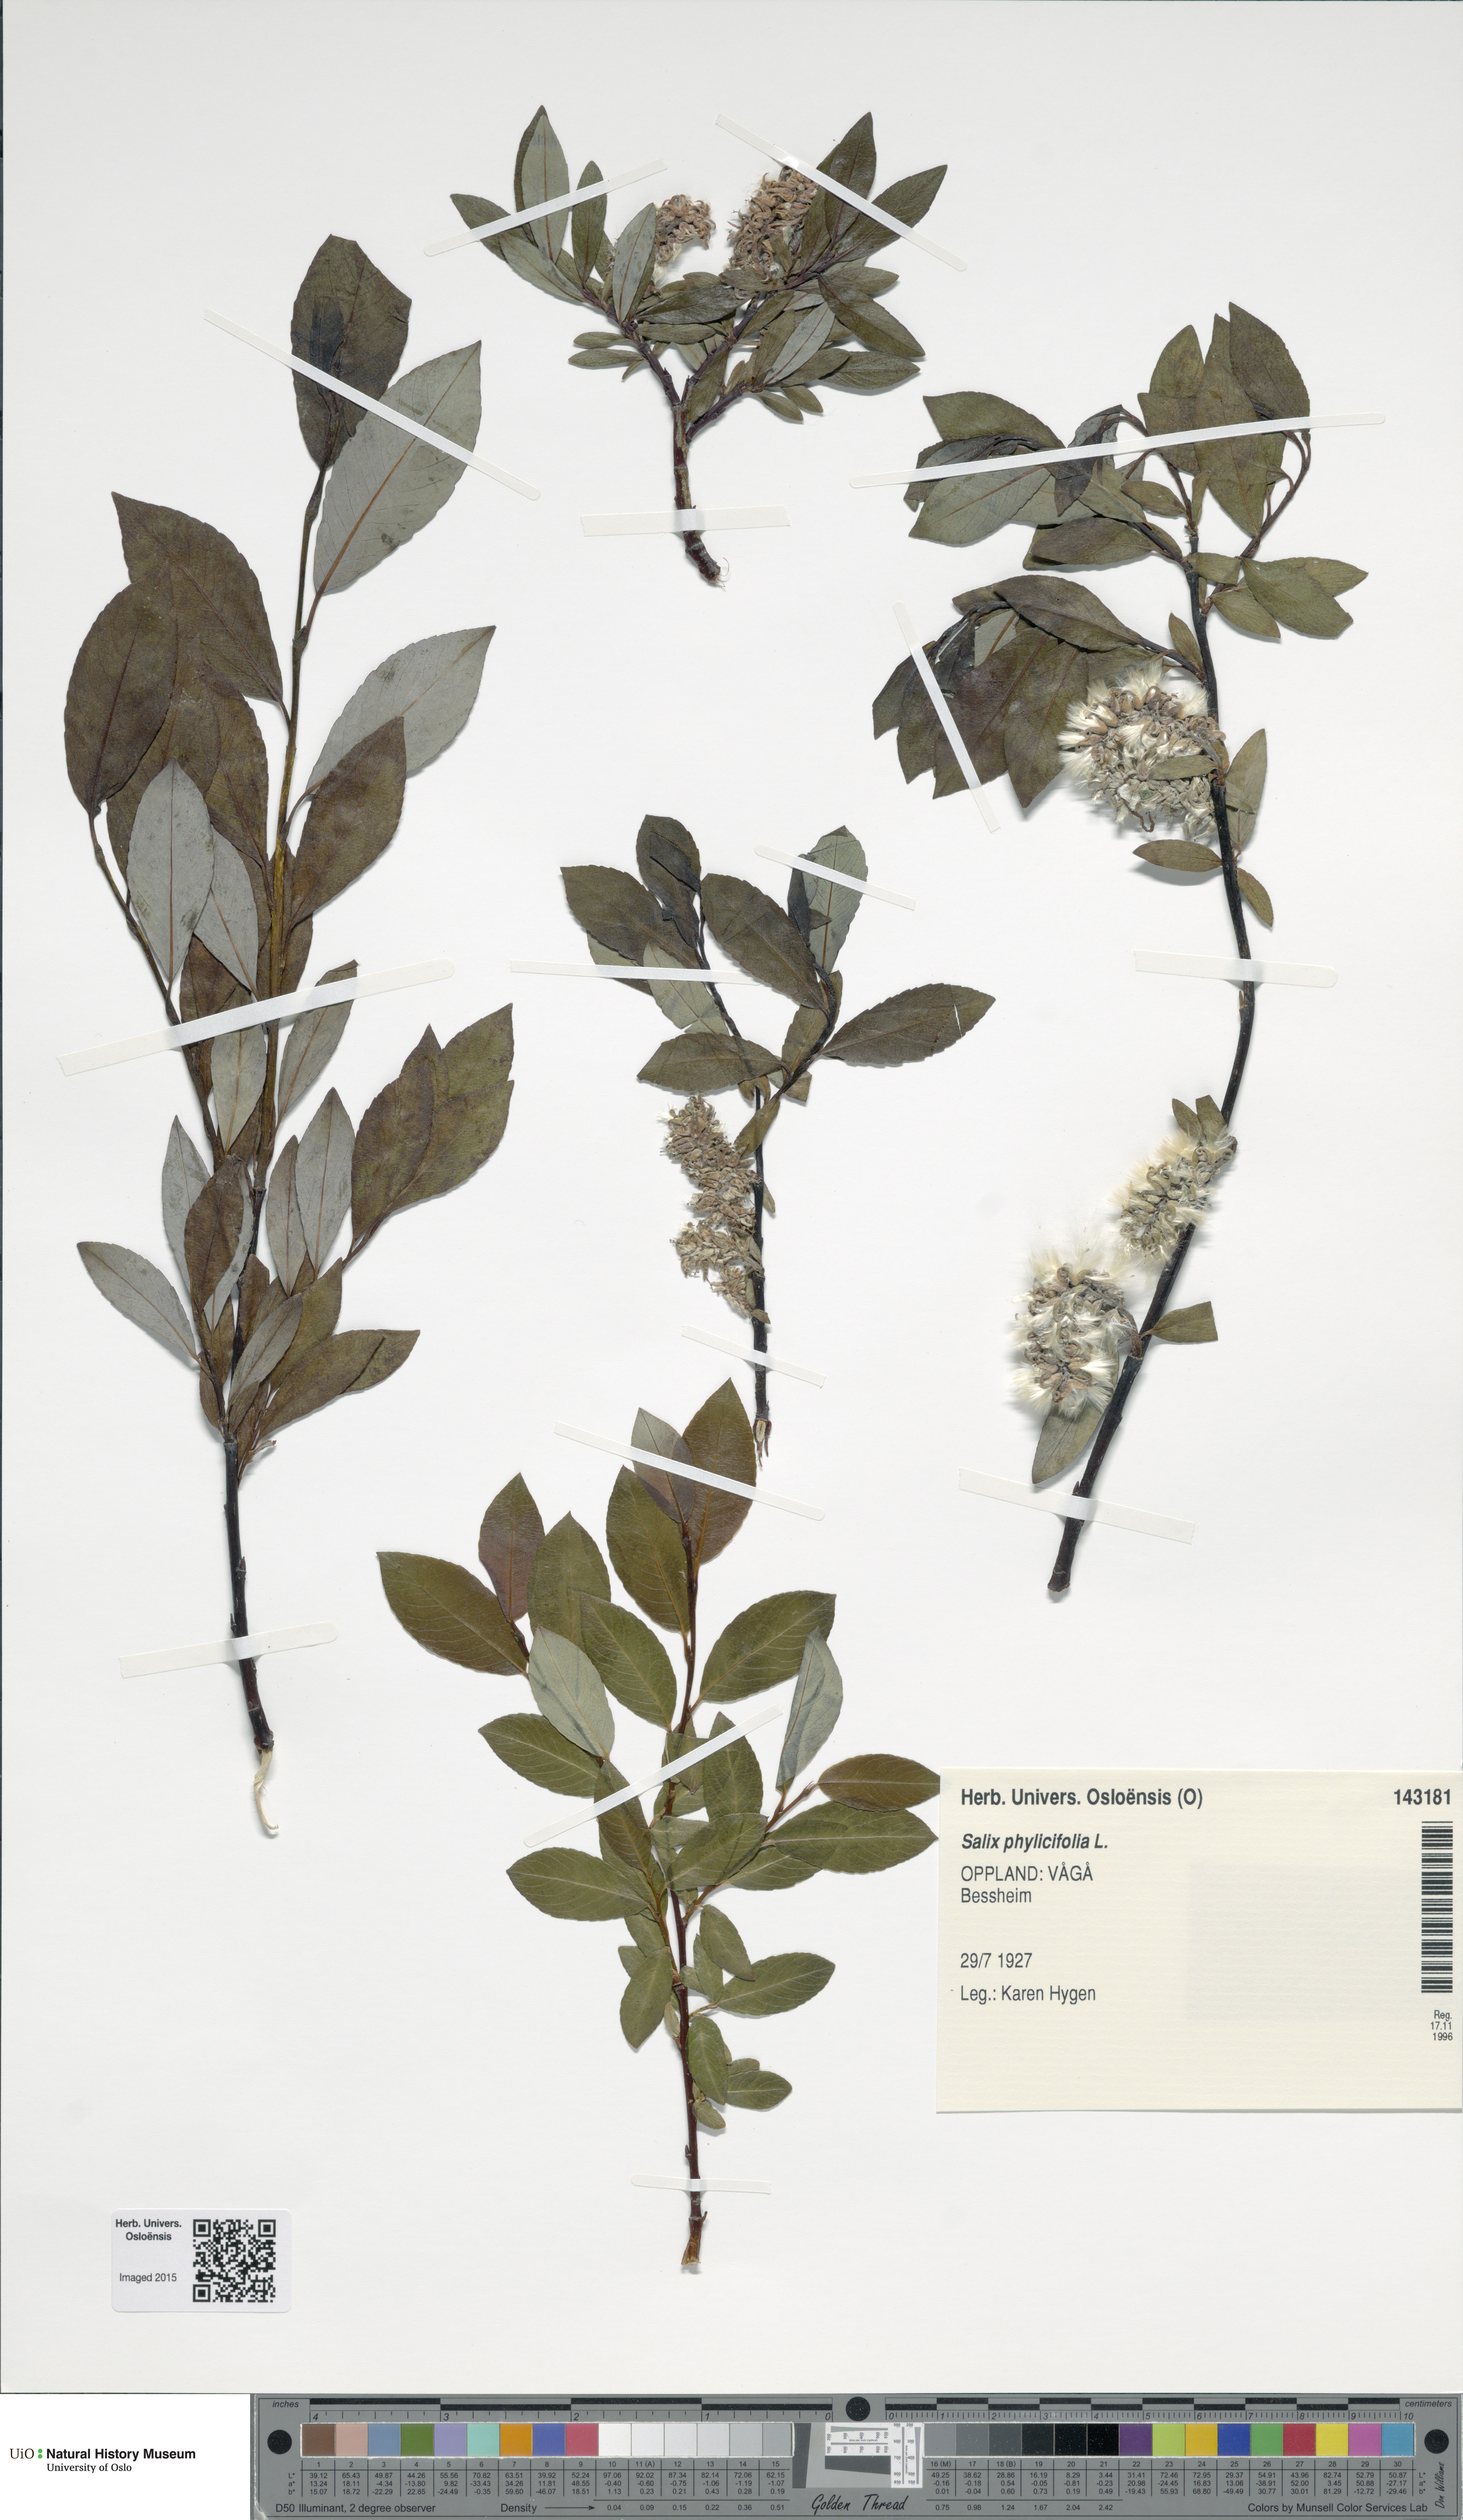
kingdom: Plantae
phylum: Tracheophyta
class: Magnoliopsida
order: Malpighiales
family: Salicaceae
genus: Salix
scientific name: Salix phylicifolia
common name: Tea-leaved willow
